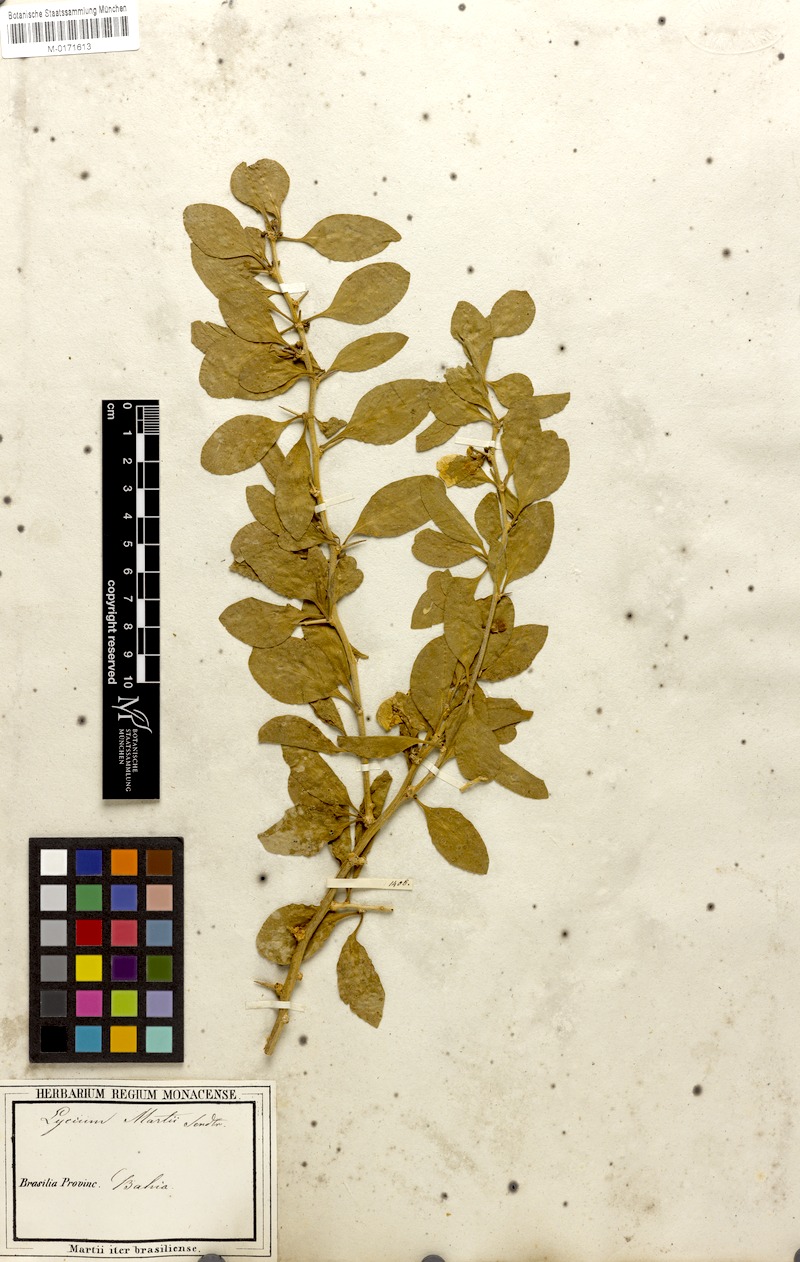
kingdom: Plantae
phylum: Tracheophyta
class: Magnoliopsida
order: Solanales
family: Solanaceae
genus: Lycium
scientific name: Lycium martii
